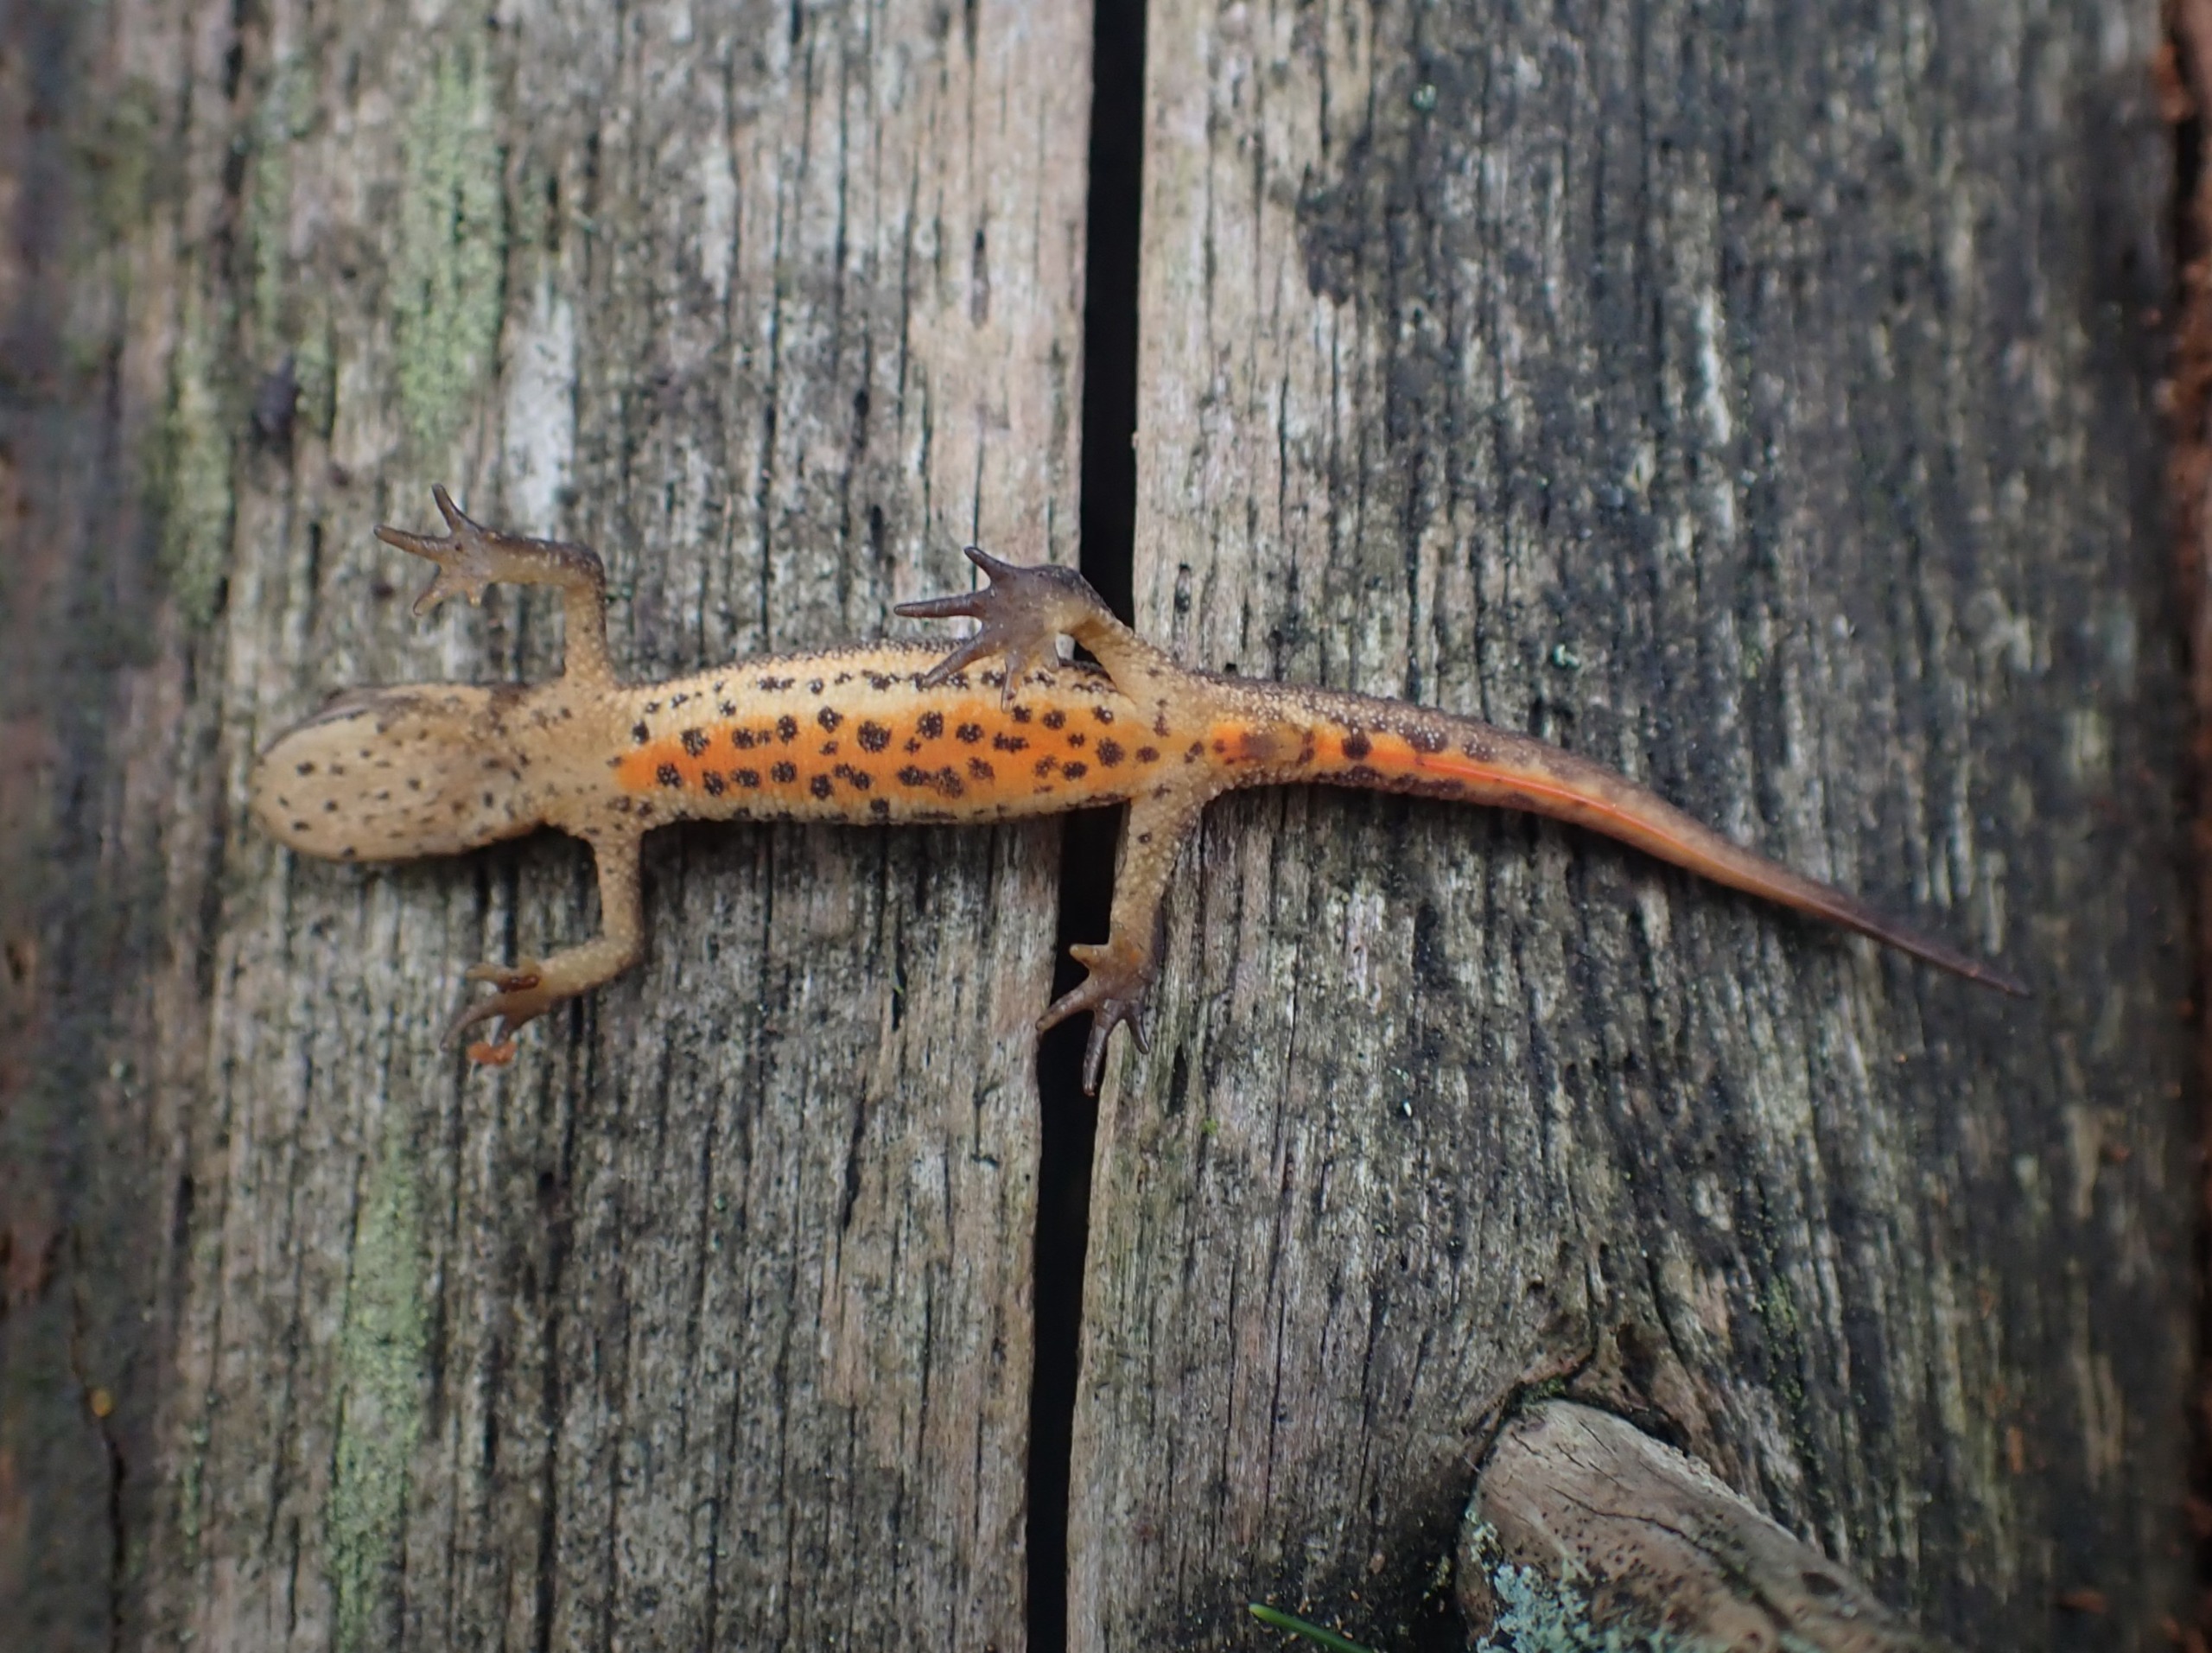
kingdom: Animalia
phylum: Chordata
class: Amphibia
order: Caudata
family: Salamandridae
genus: Lissotriton
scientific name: Lissotriton vulgaris
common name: Lille vandsalamander
